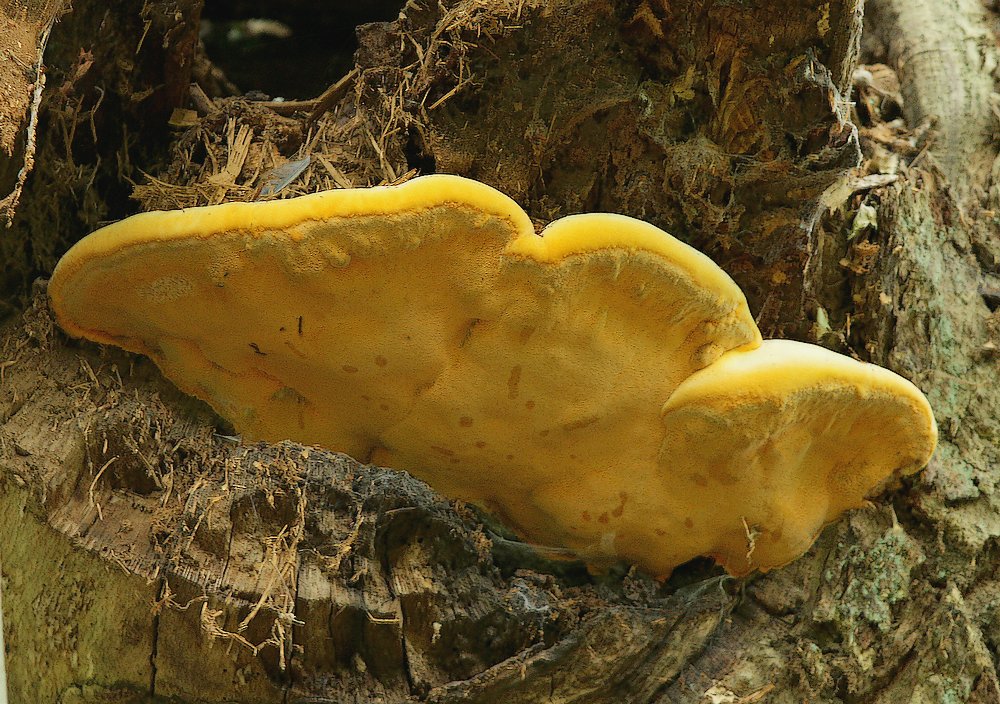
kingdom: Fungi
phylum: Basidiomycota
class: Agaricomycetes
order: Polyporales
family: Phanerochaetaceae
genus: Hapalopilus
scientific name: Hapalopilus croceus
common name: safrangul pragtporesvamp
